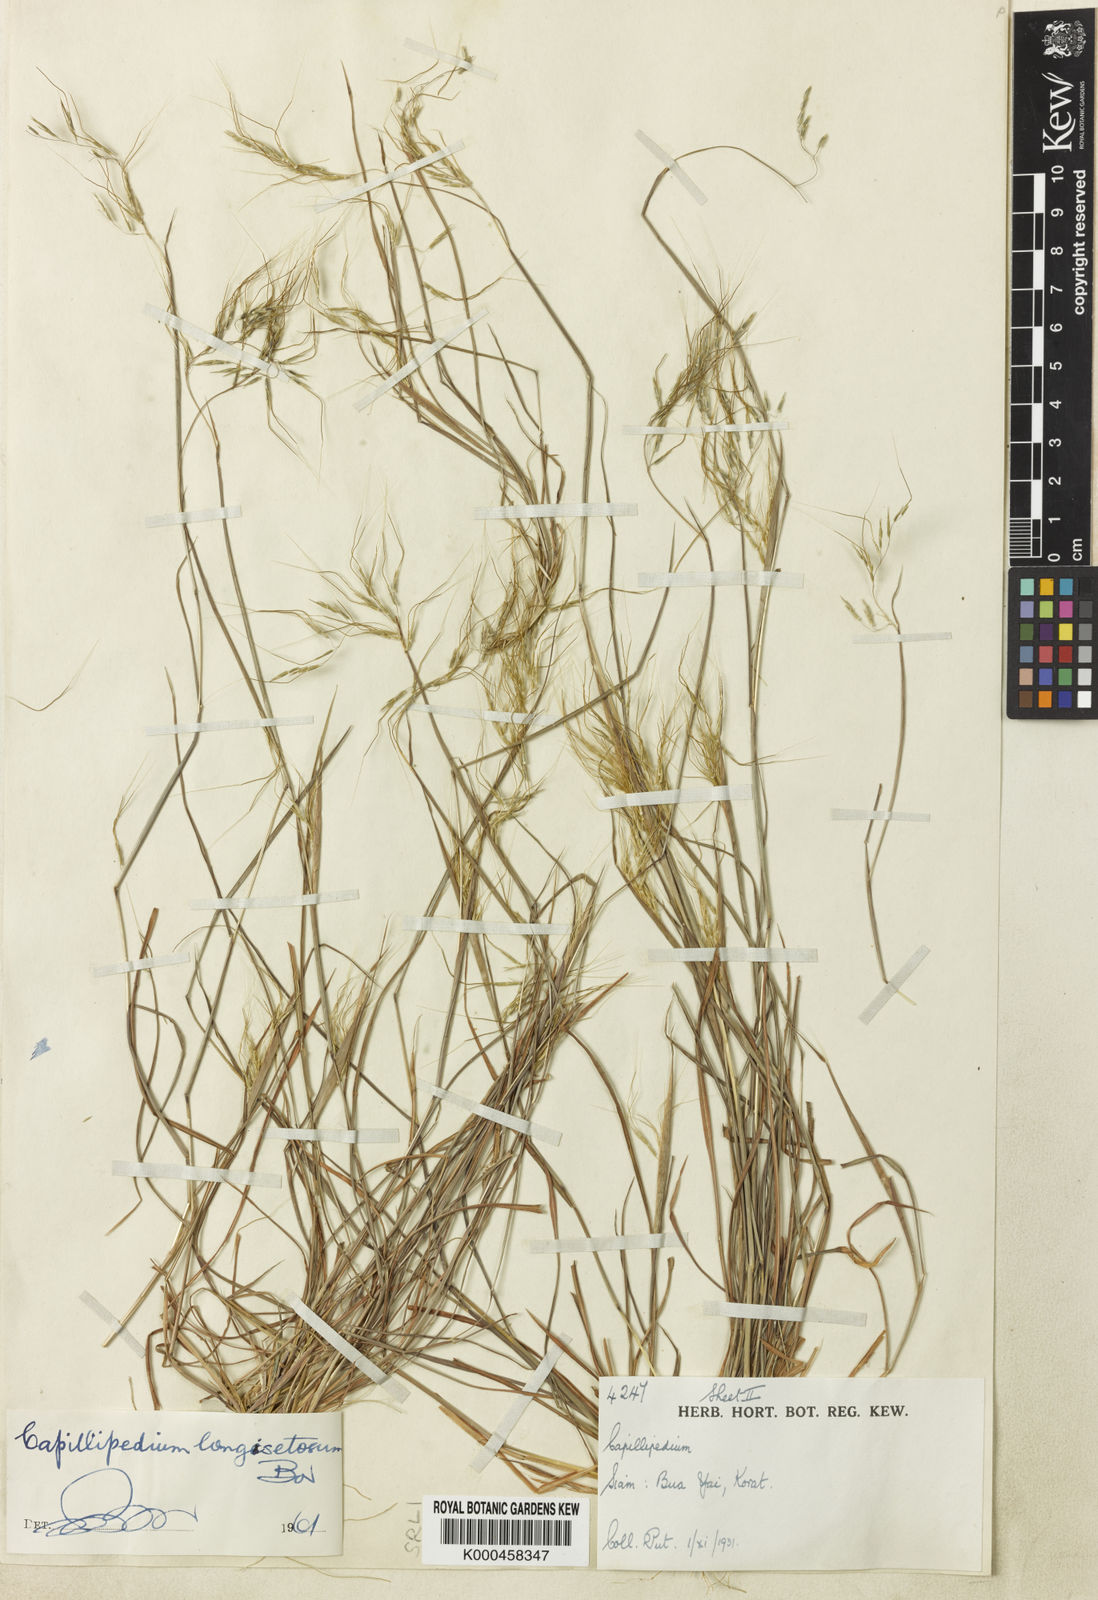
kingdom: Plantae
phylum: Tracheophyta
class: Liliopsida
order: Poales
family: Poaceae
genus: Capillipedium
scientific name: Capillipedium longisetosum
